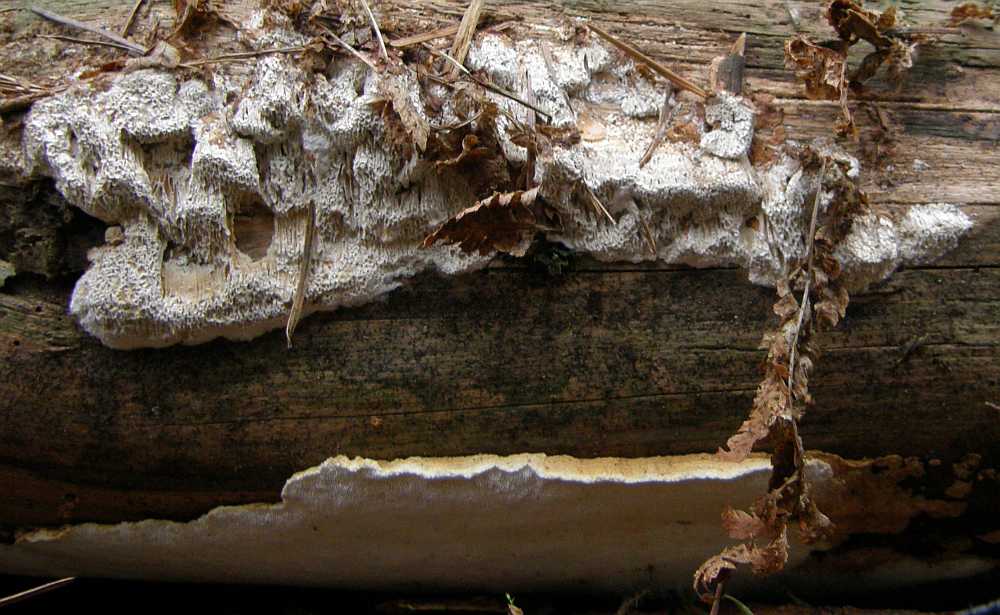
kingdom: Fungi
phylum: Basidiomycota
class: Agaricomycetes
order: Polyporales
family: Fomitopsidaceae
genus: Neoantrodia
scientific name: Neoantrodia serialis
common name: række-sejporesvamp
